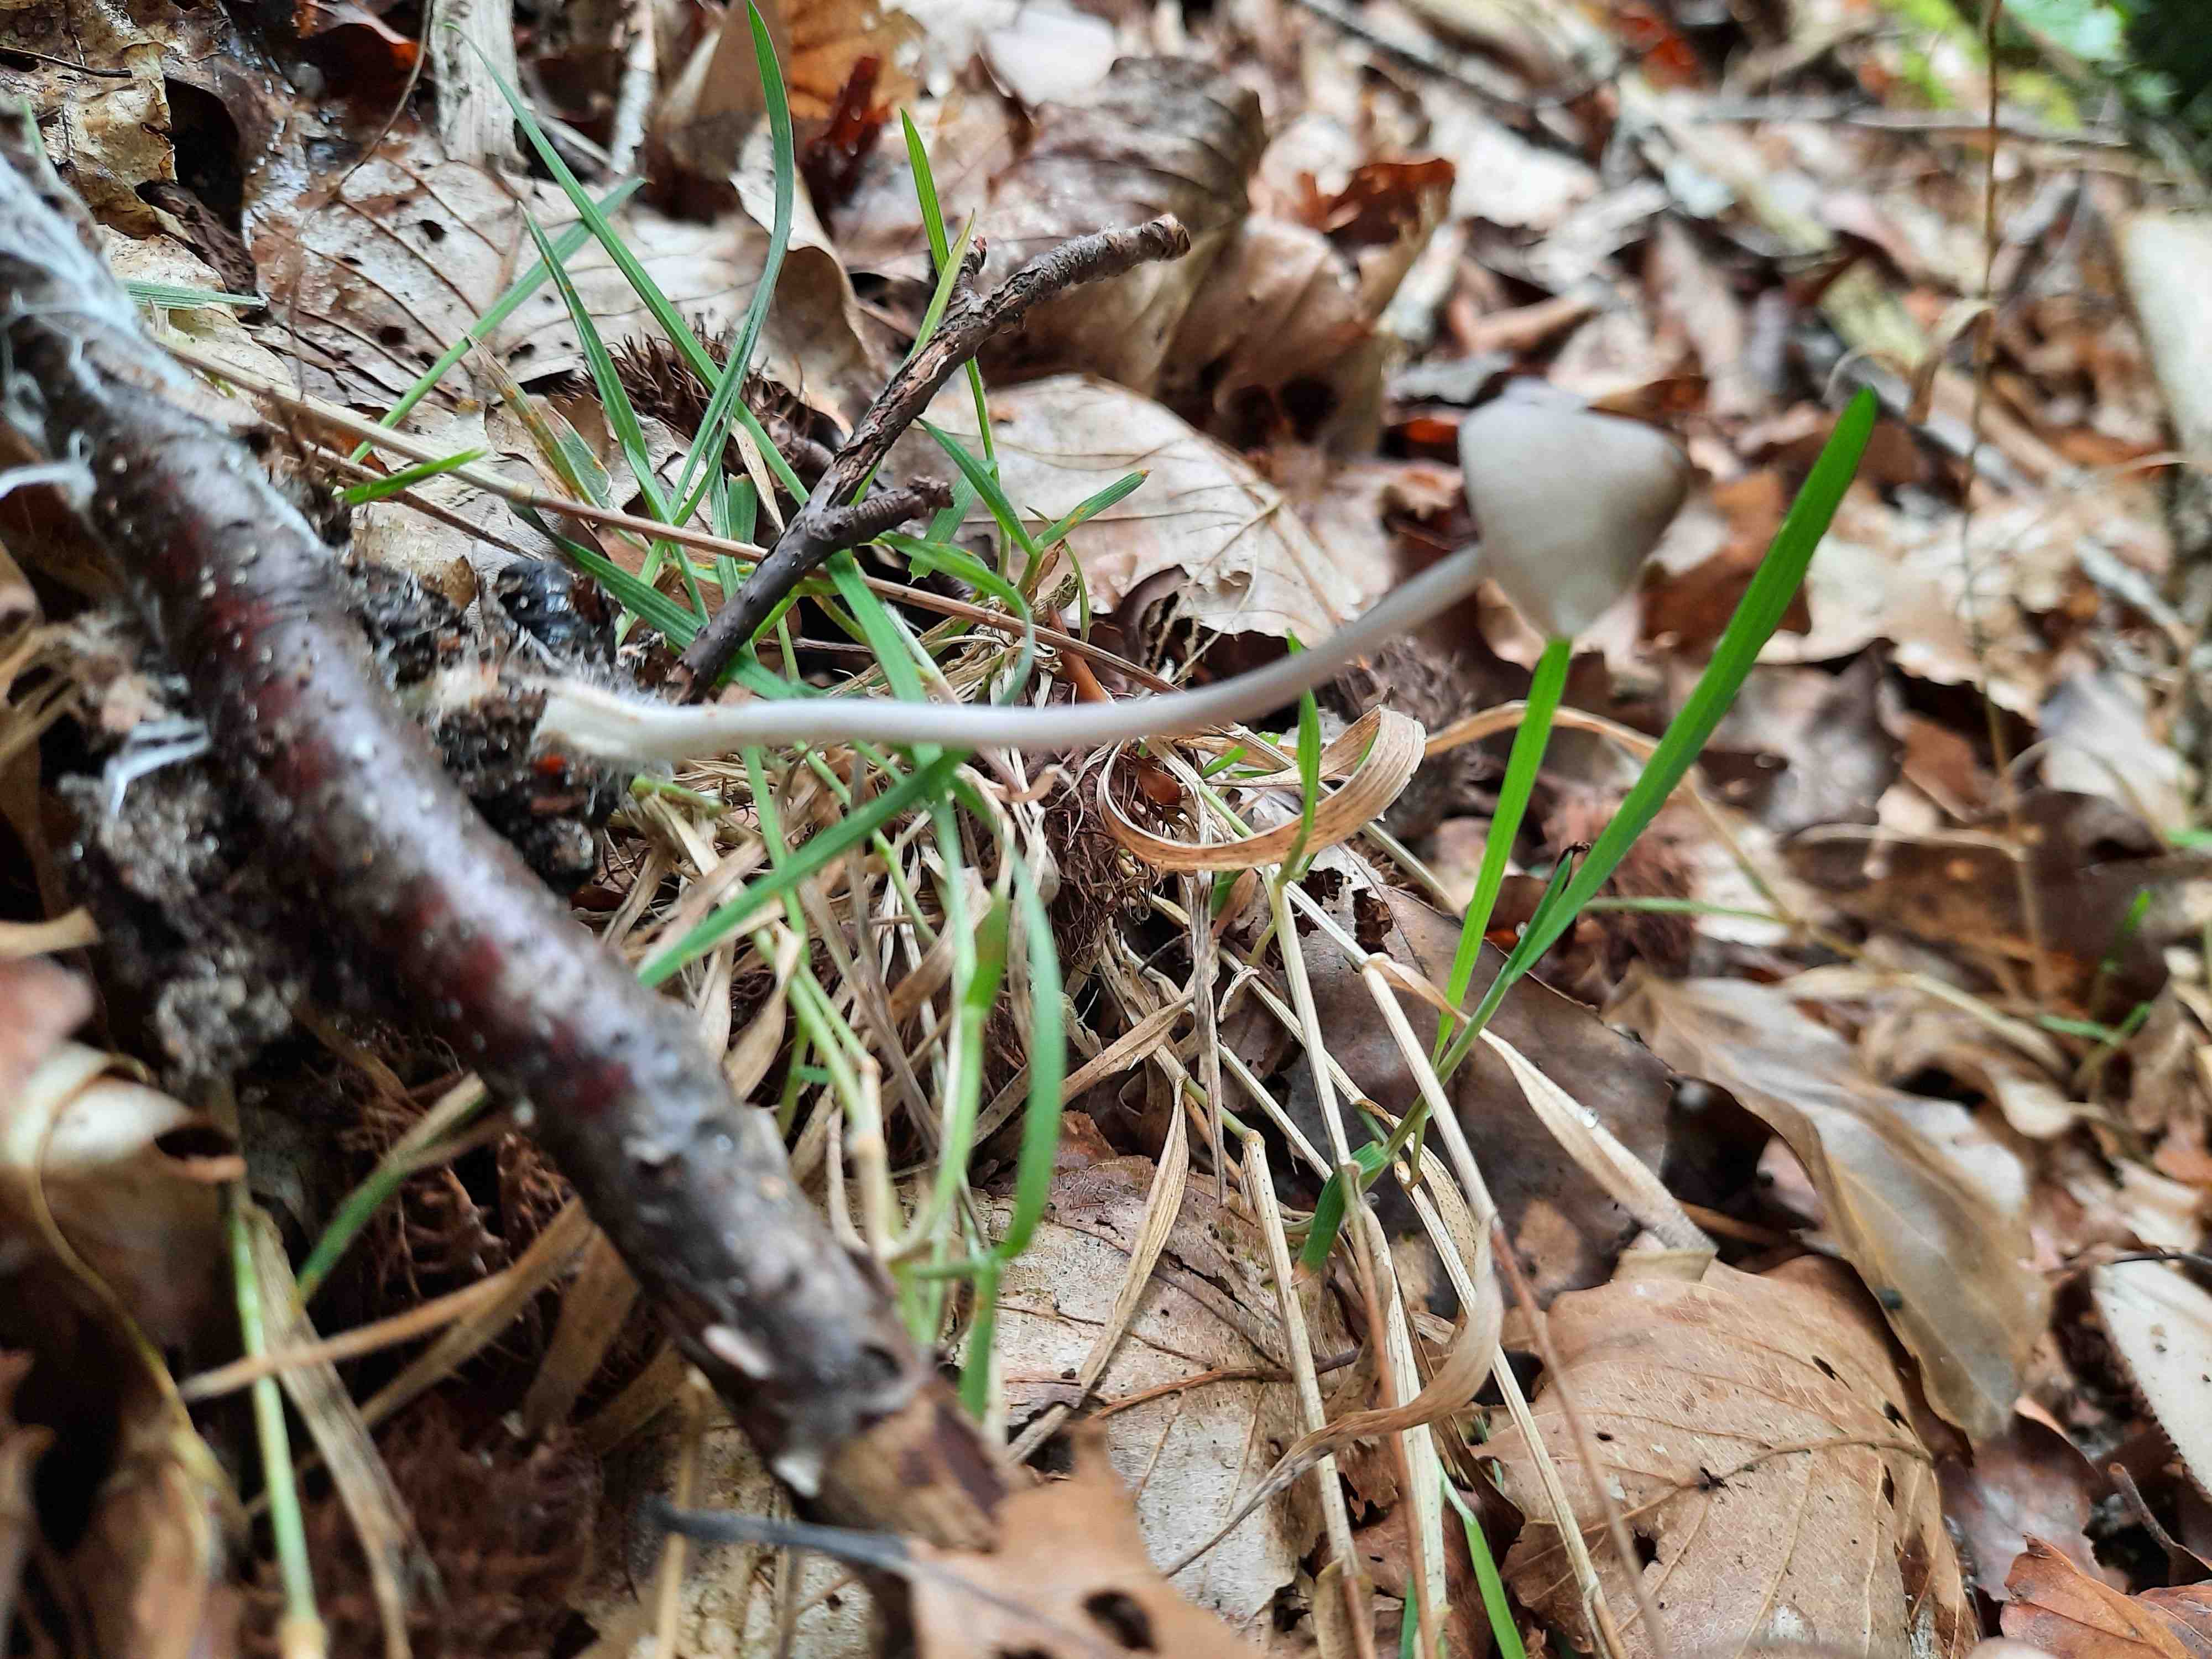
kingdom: Fungi
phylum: Basidiomycota
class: Agaricomycetes
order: Agaricales
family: Mycenaceae
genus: Mycena
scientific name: Mycena polygramma
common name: mangestribet huesvamp
